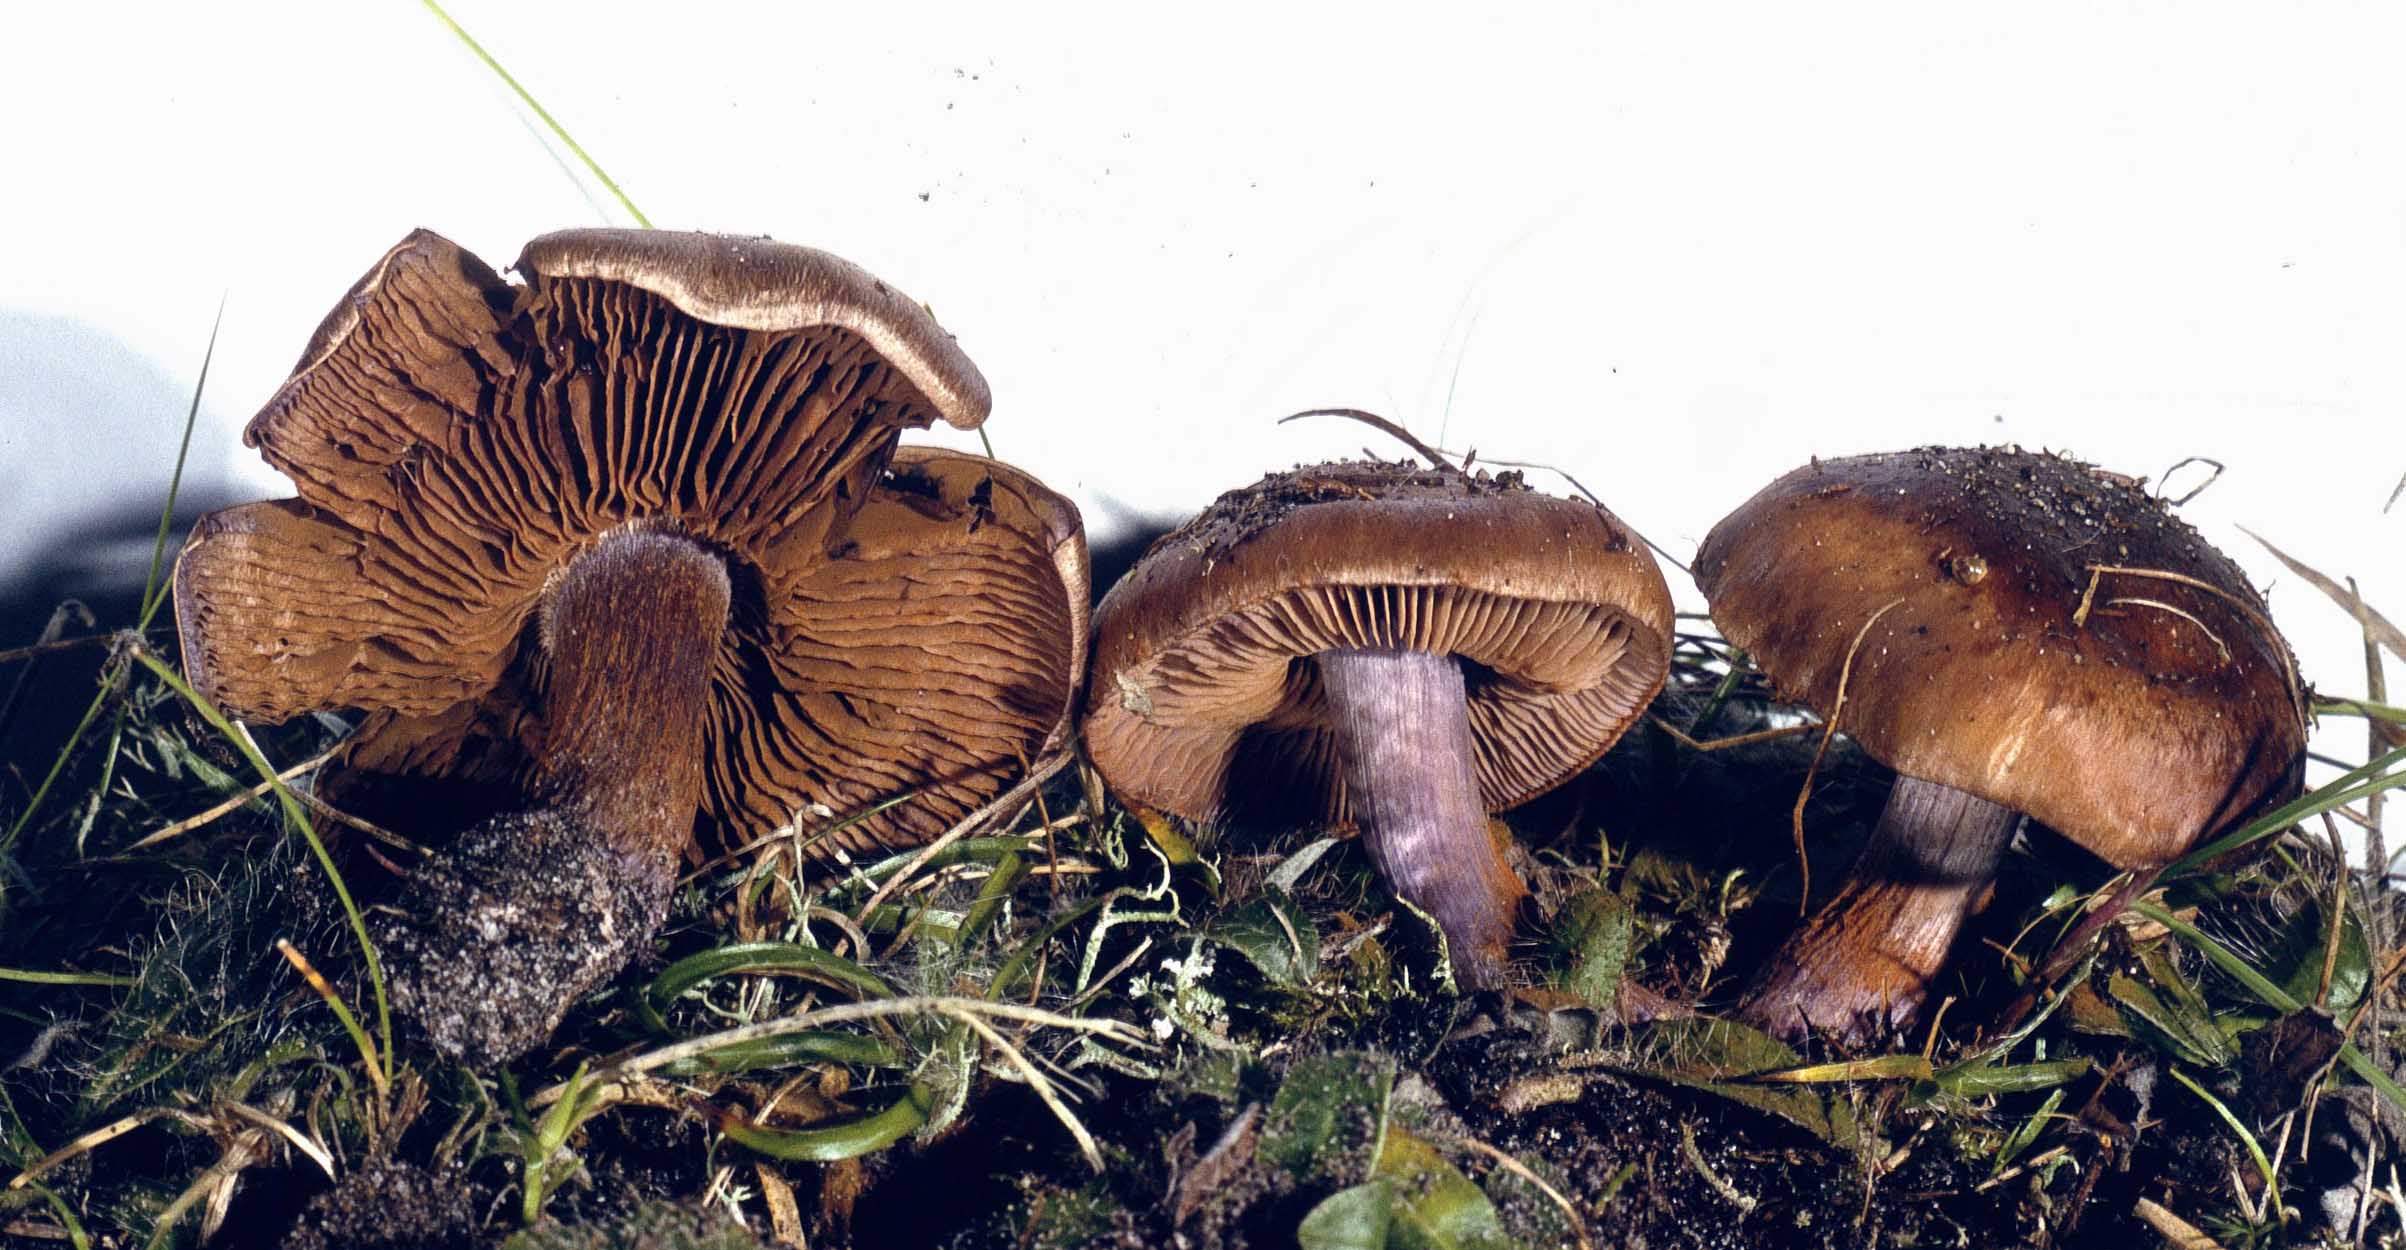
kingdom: Fungi
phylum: Basidiomycota
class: Agaricomycetes
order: Agaricales
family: Cortinariaceae
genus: Thaxterogaster
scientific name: Thaxterogaster purpurascens
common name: purpurbrun slørhat
